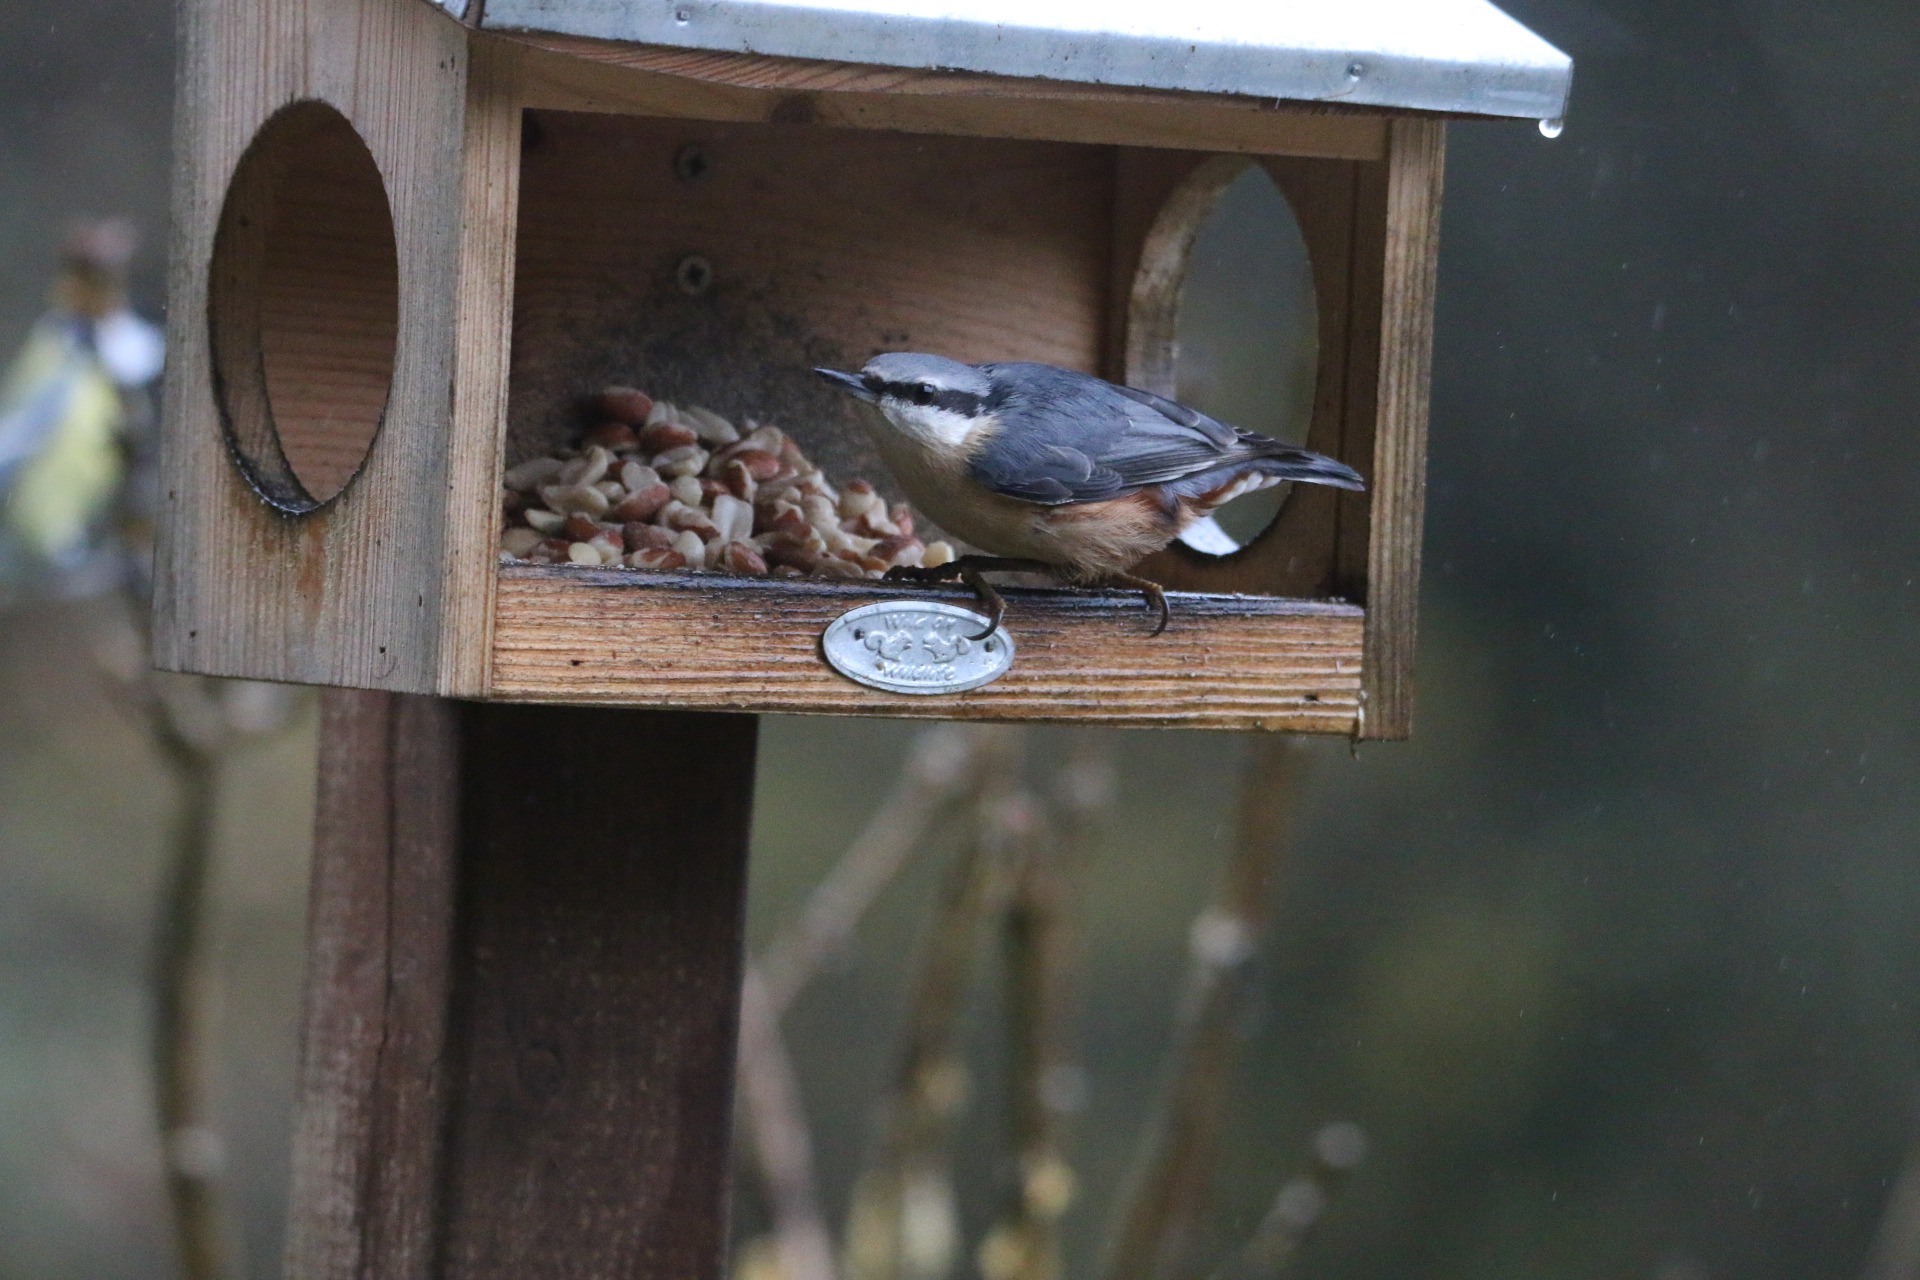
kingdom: Animalia
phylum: Chordata
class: Aves
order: Passeriformes
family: Sittidae
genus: Sitta
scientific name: Sitta europaea
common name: Spætmejse
